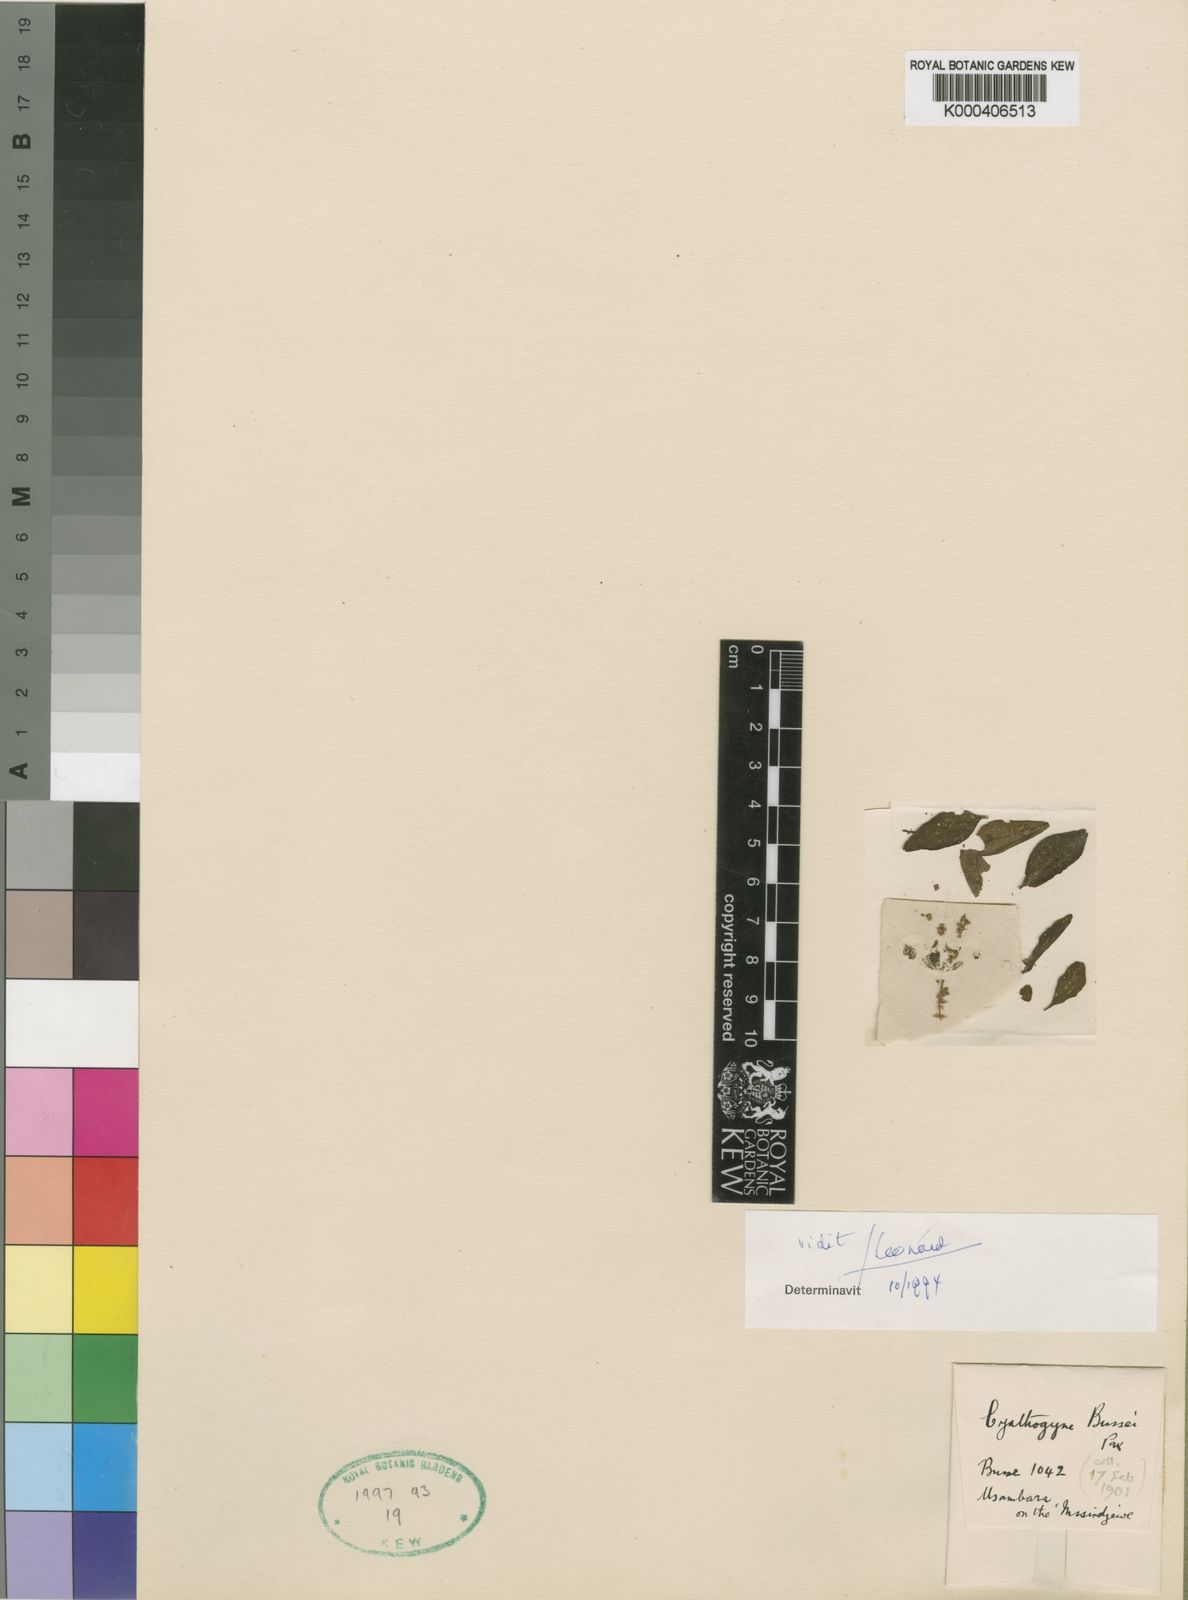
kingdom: Plantae
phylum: Tracheophyta
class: Magnoliopsida
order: Malpighiales
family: Phyllanthaceae
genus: Thecacoris
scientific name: Thecacoris spathulifolia
